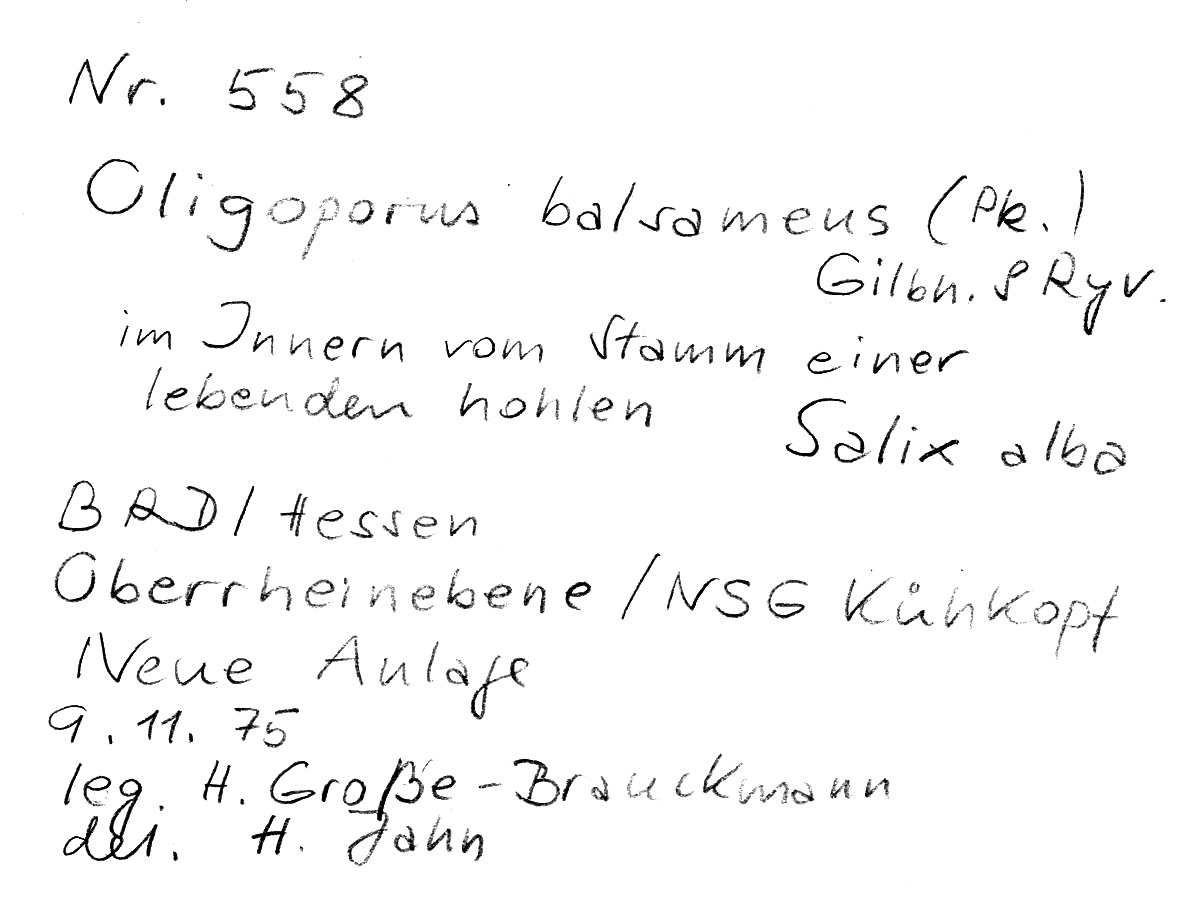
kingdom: Fungi
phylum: Basidiomycota
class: Agaricomycetes
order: Polyporales
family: Dacryobolaceae
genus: Postia
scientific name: Postia balsamea
